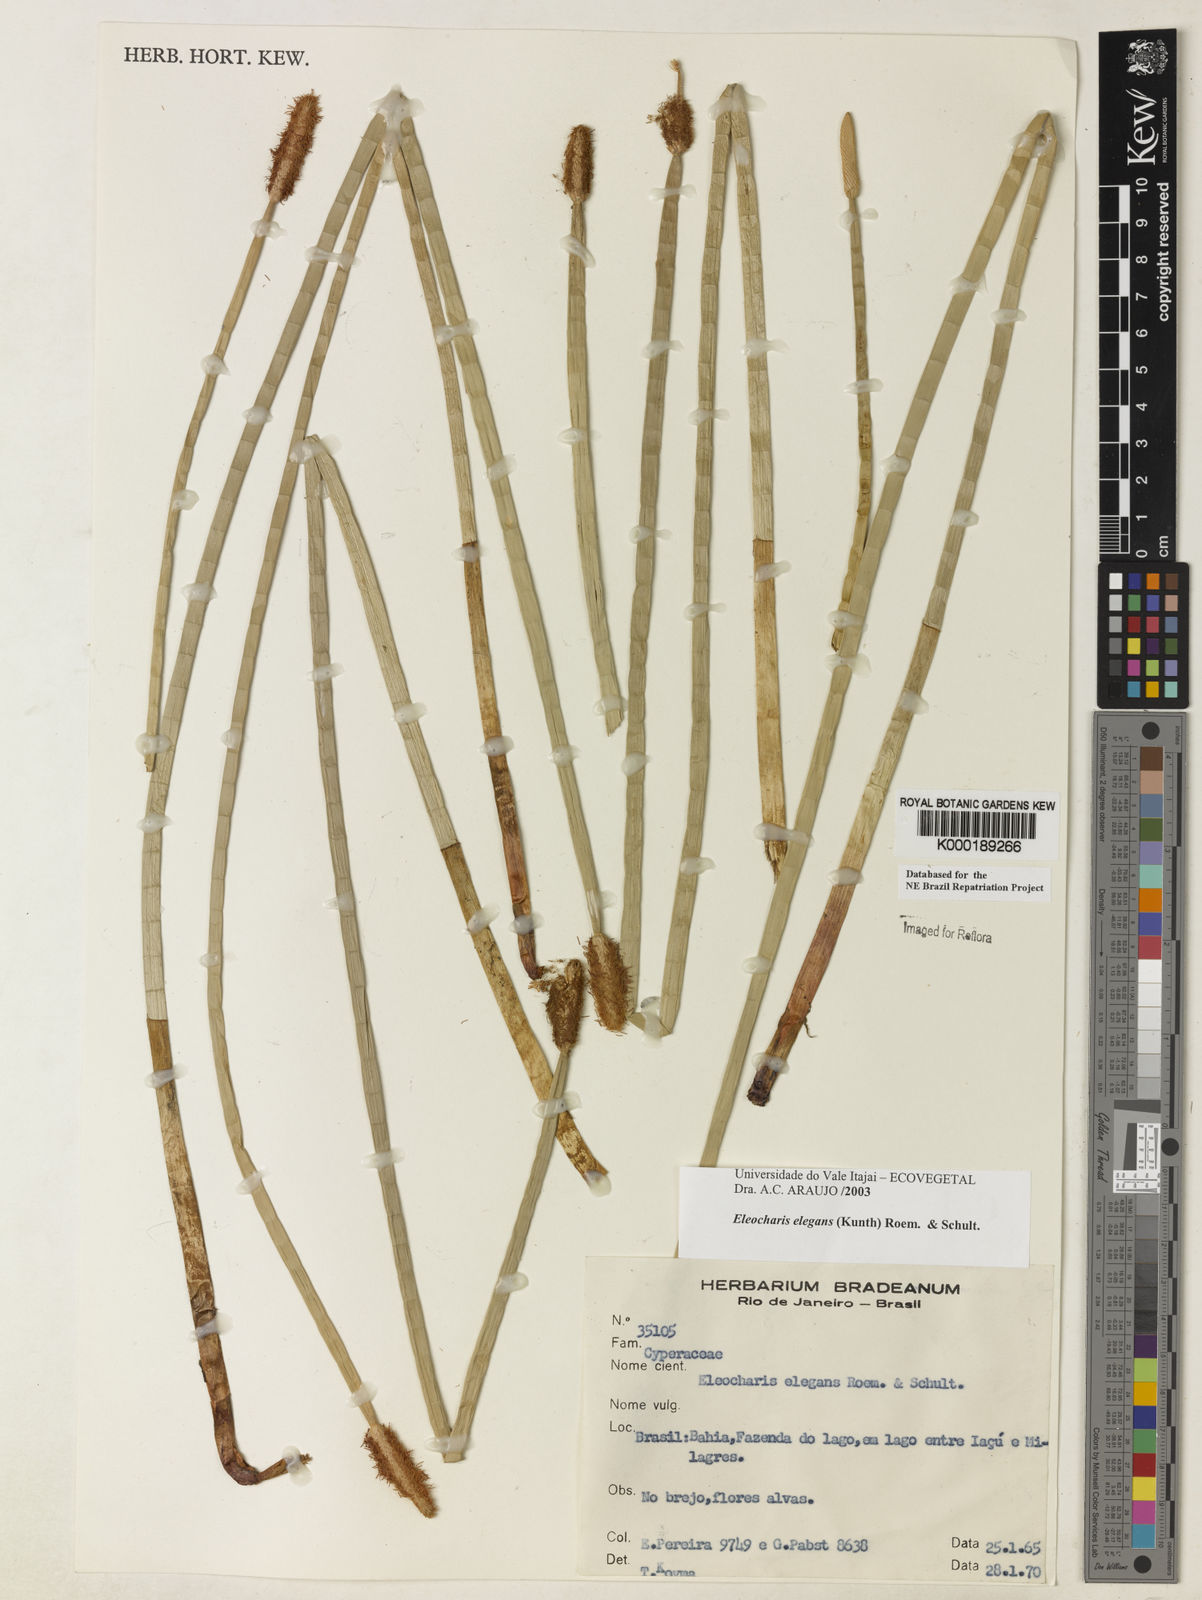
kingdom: Plantae
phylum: Tracheophyta
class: Liliopsida
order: Poales
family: Cyperaceae
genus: Eleocharis
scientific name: Eleocharis elegans
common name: Elegant spike-rush
